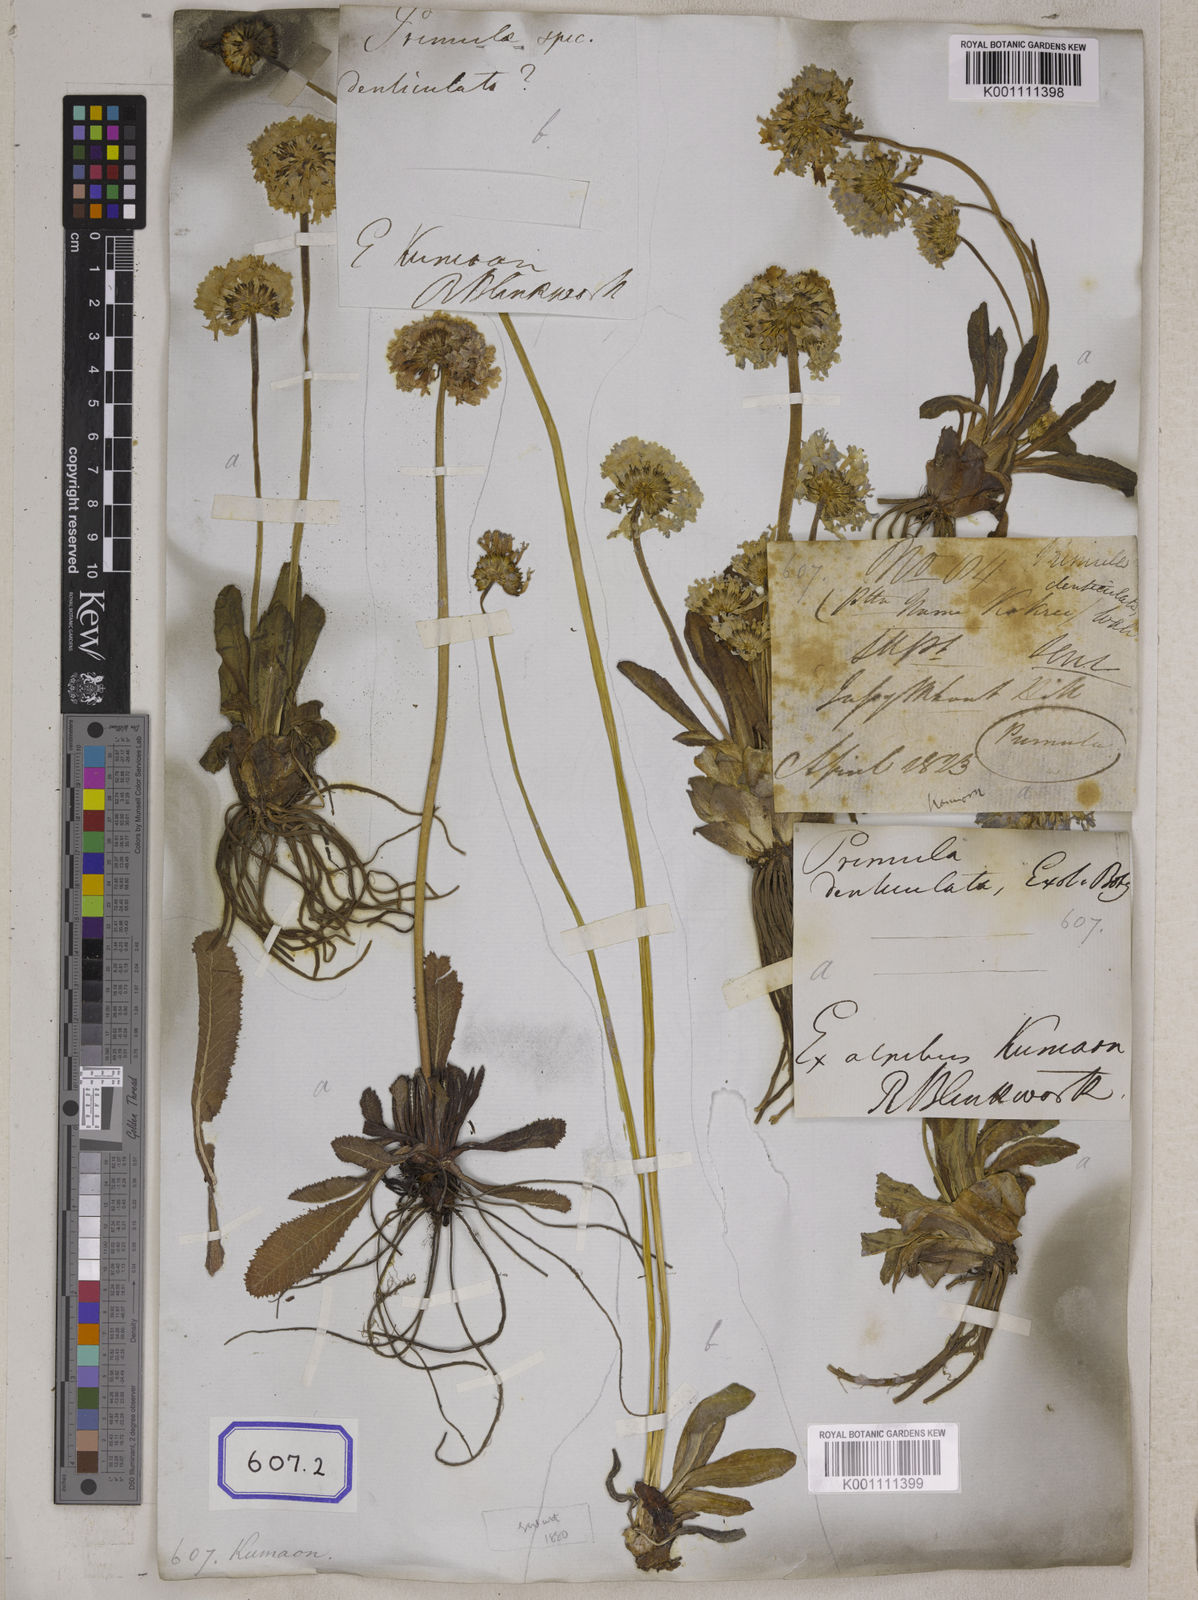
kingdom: Plantae
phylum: Tracheophyta
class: Magnoliopsida
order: Ericales
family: Primulaceae
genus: Primula
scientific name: Primula denticulata
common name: Drumstick primula
